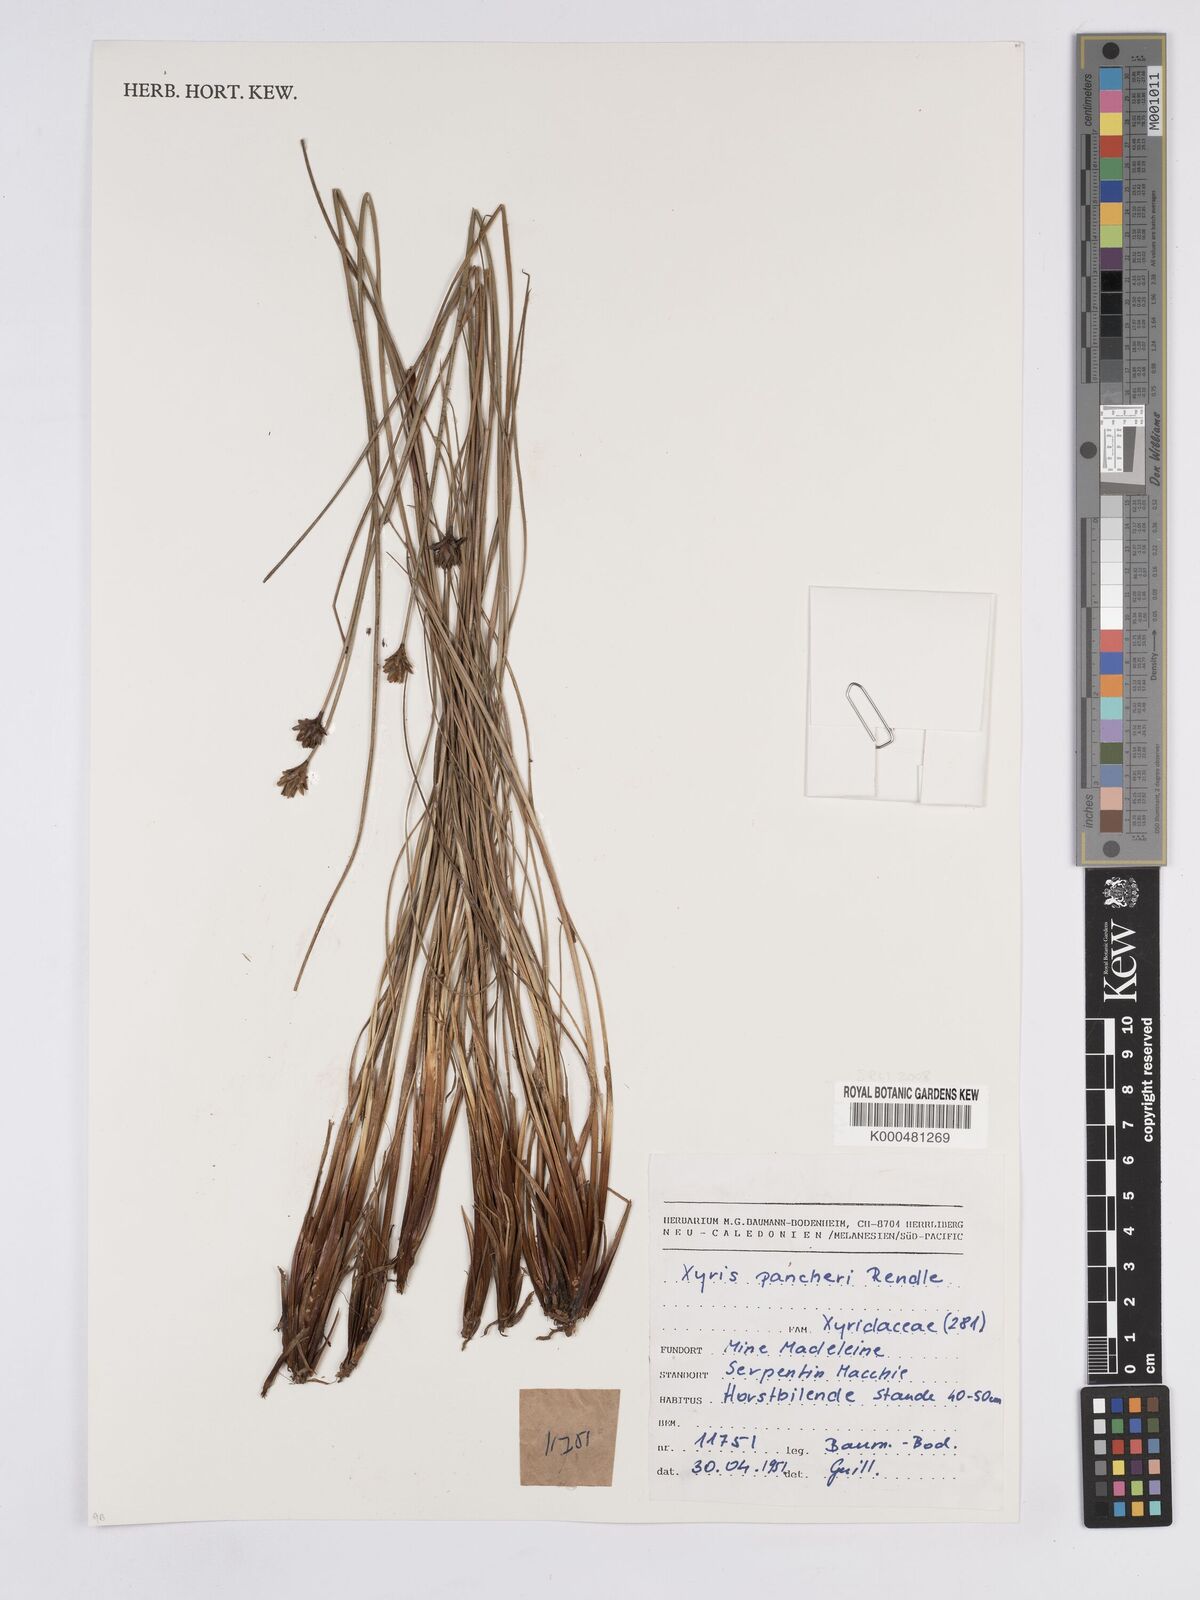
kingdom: Plantae
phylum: Tracheophyta
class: Liliopsida
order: Poales
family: Xyridaceae
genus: Xyris
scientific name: Xyris pancheri
